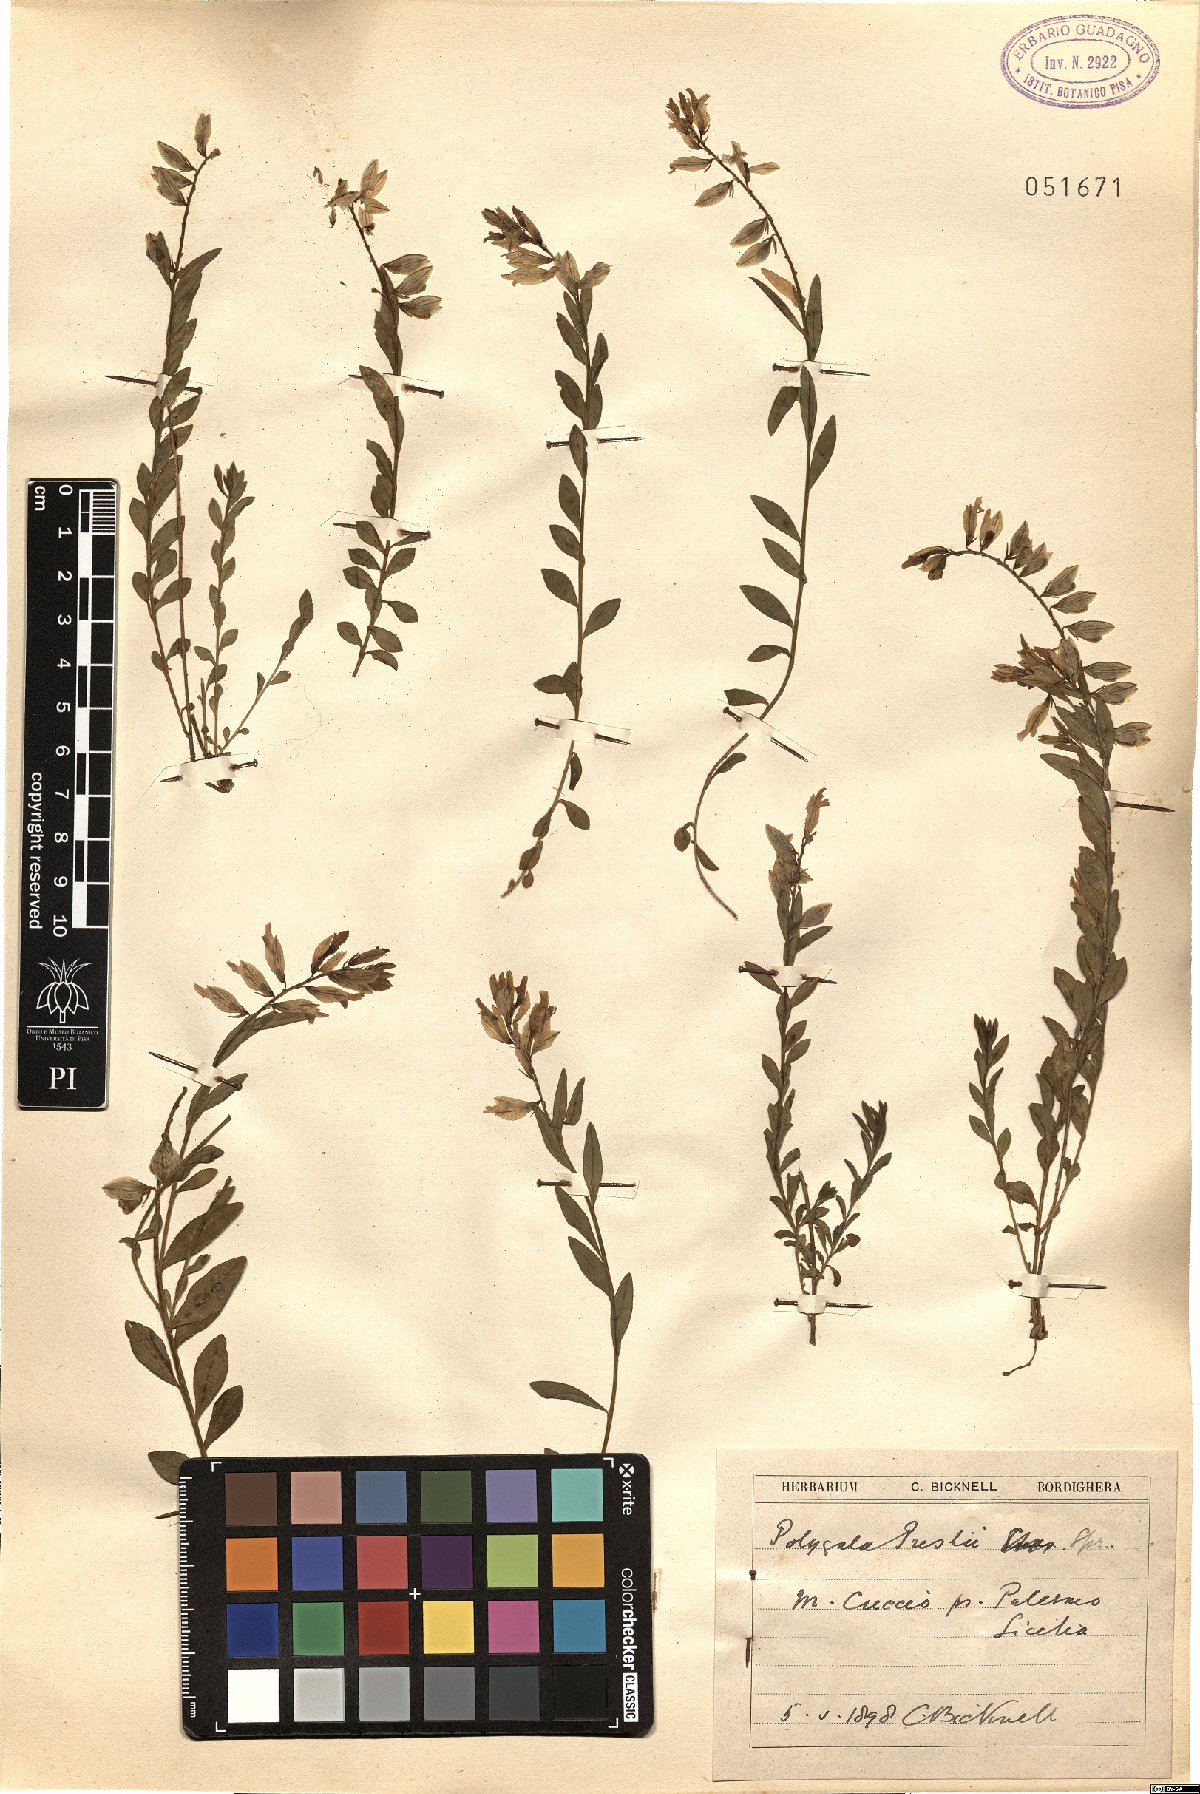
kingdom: Plantae
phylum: Tracheophyta
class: Magnoliopsida
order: Fabales
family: Polygalaceae
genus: Polygala
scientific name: Polygala preslii
